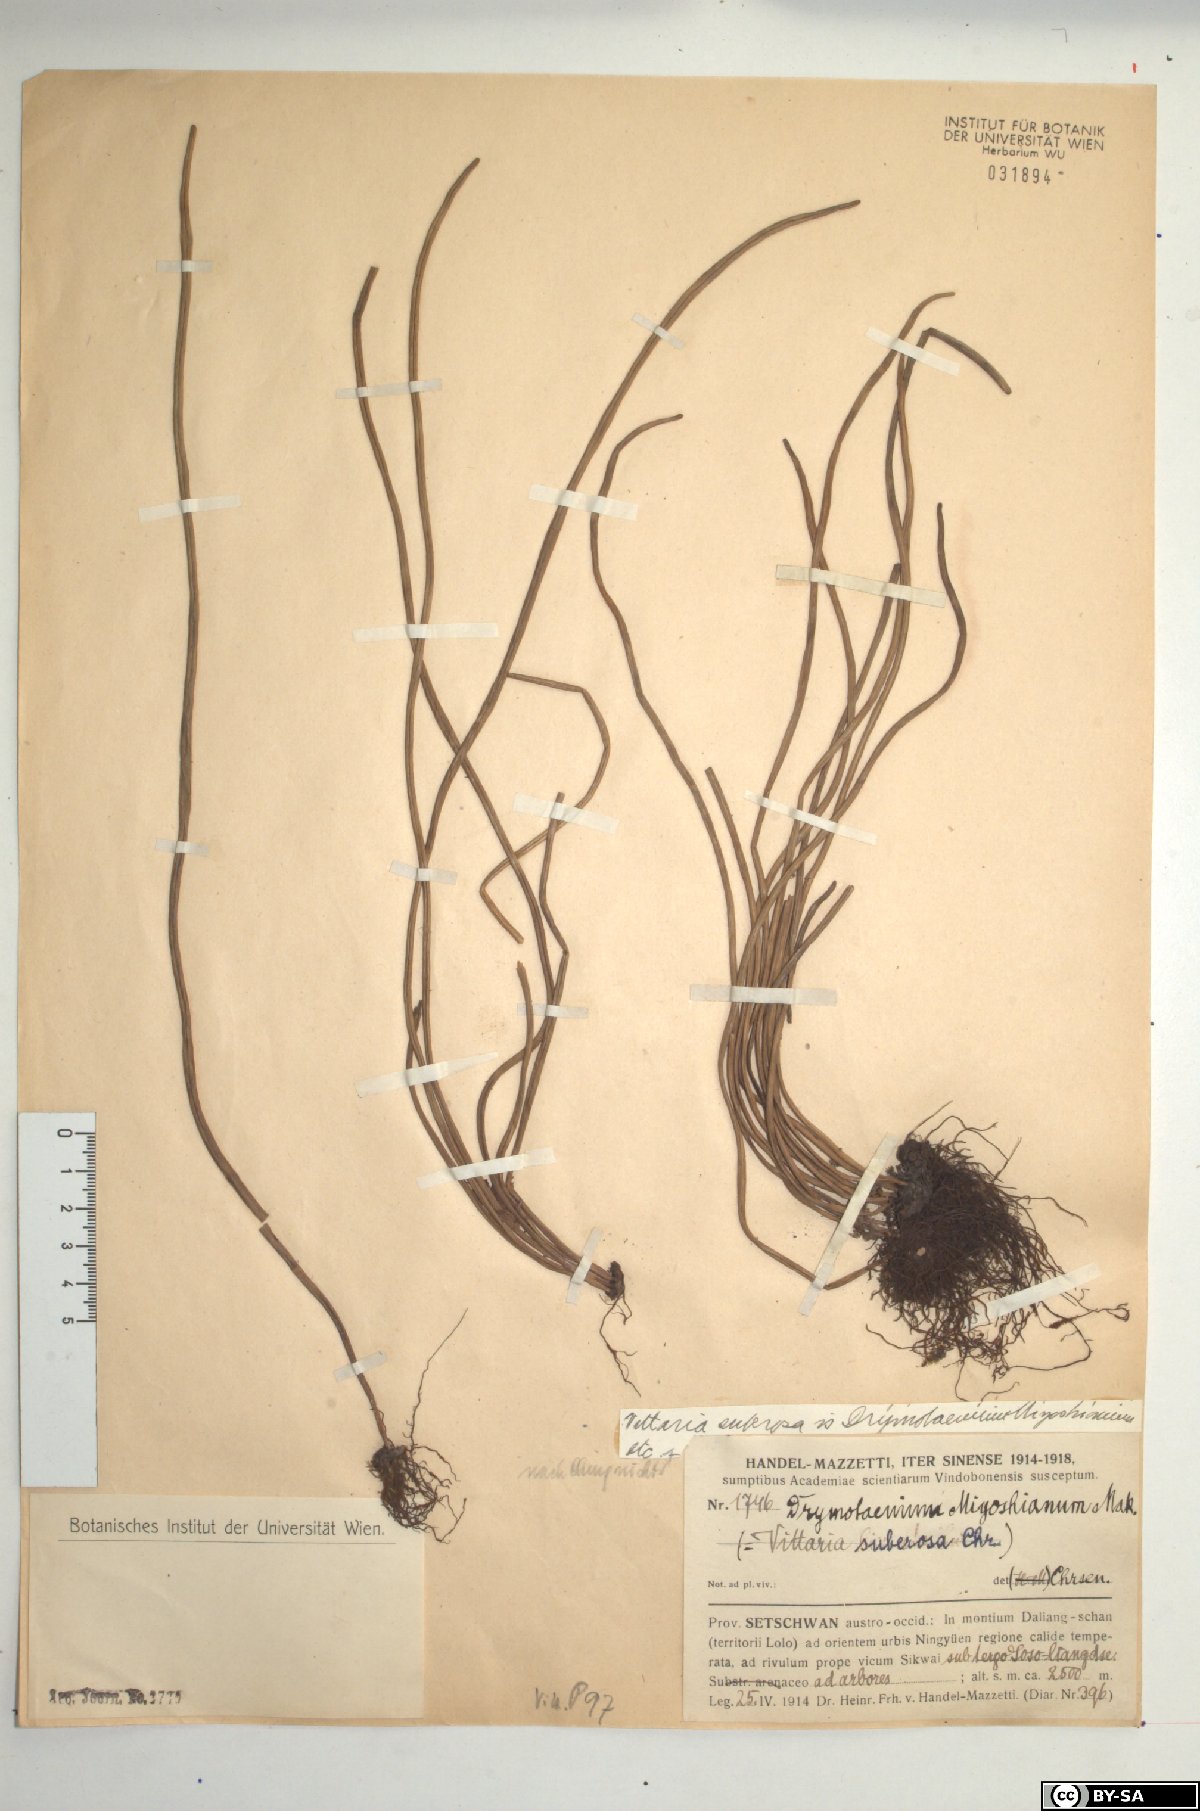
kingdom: Plantae
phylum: Tracheophyta
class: Polypodiopsida
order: Polypodiales
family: Polypodiaceae
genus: Lepisorus
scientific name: Lepisorus miyoshianus
